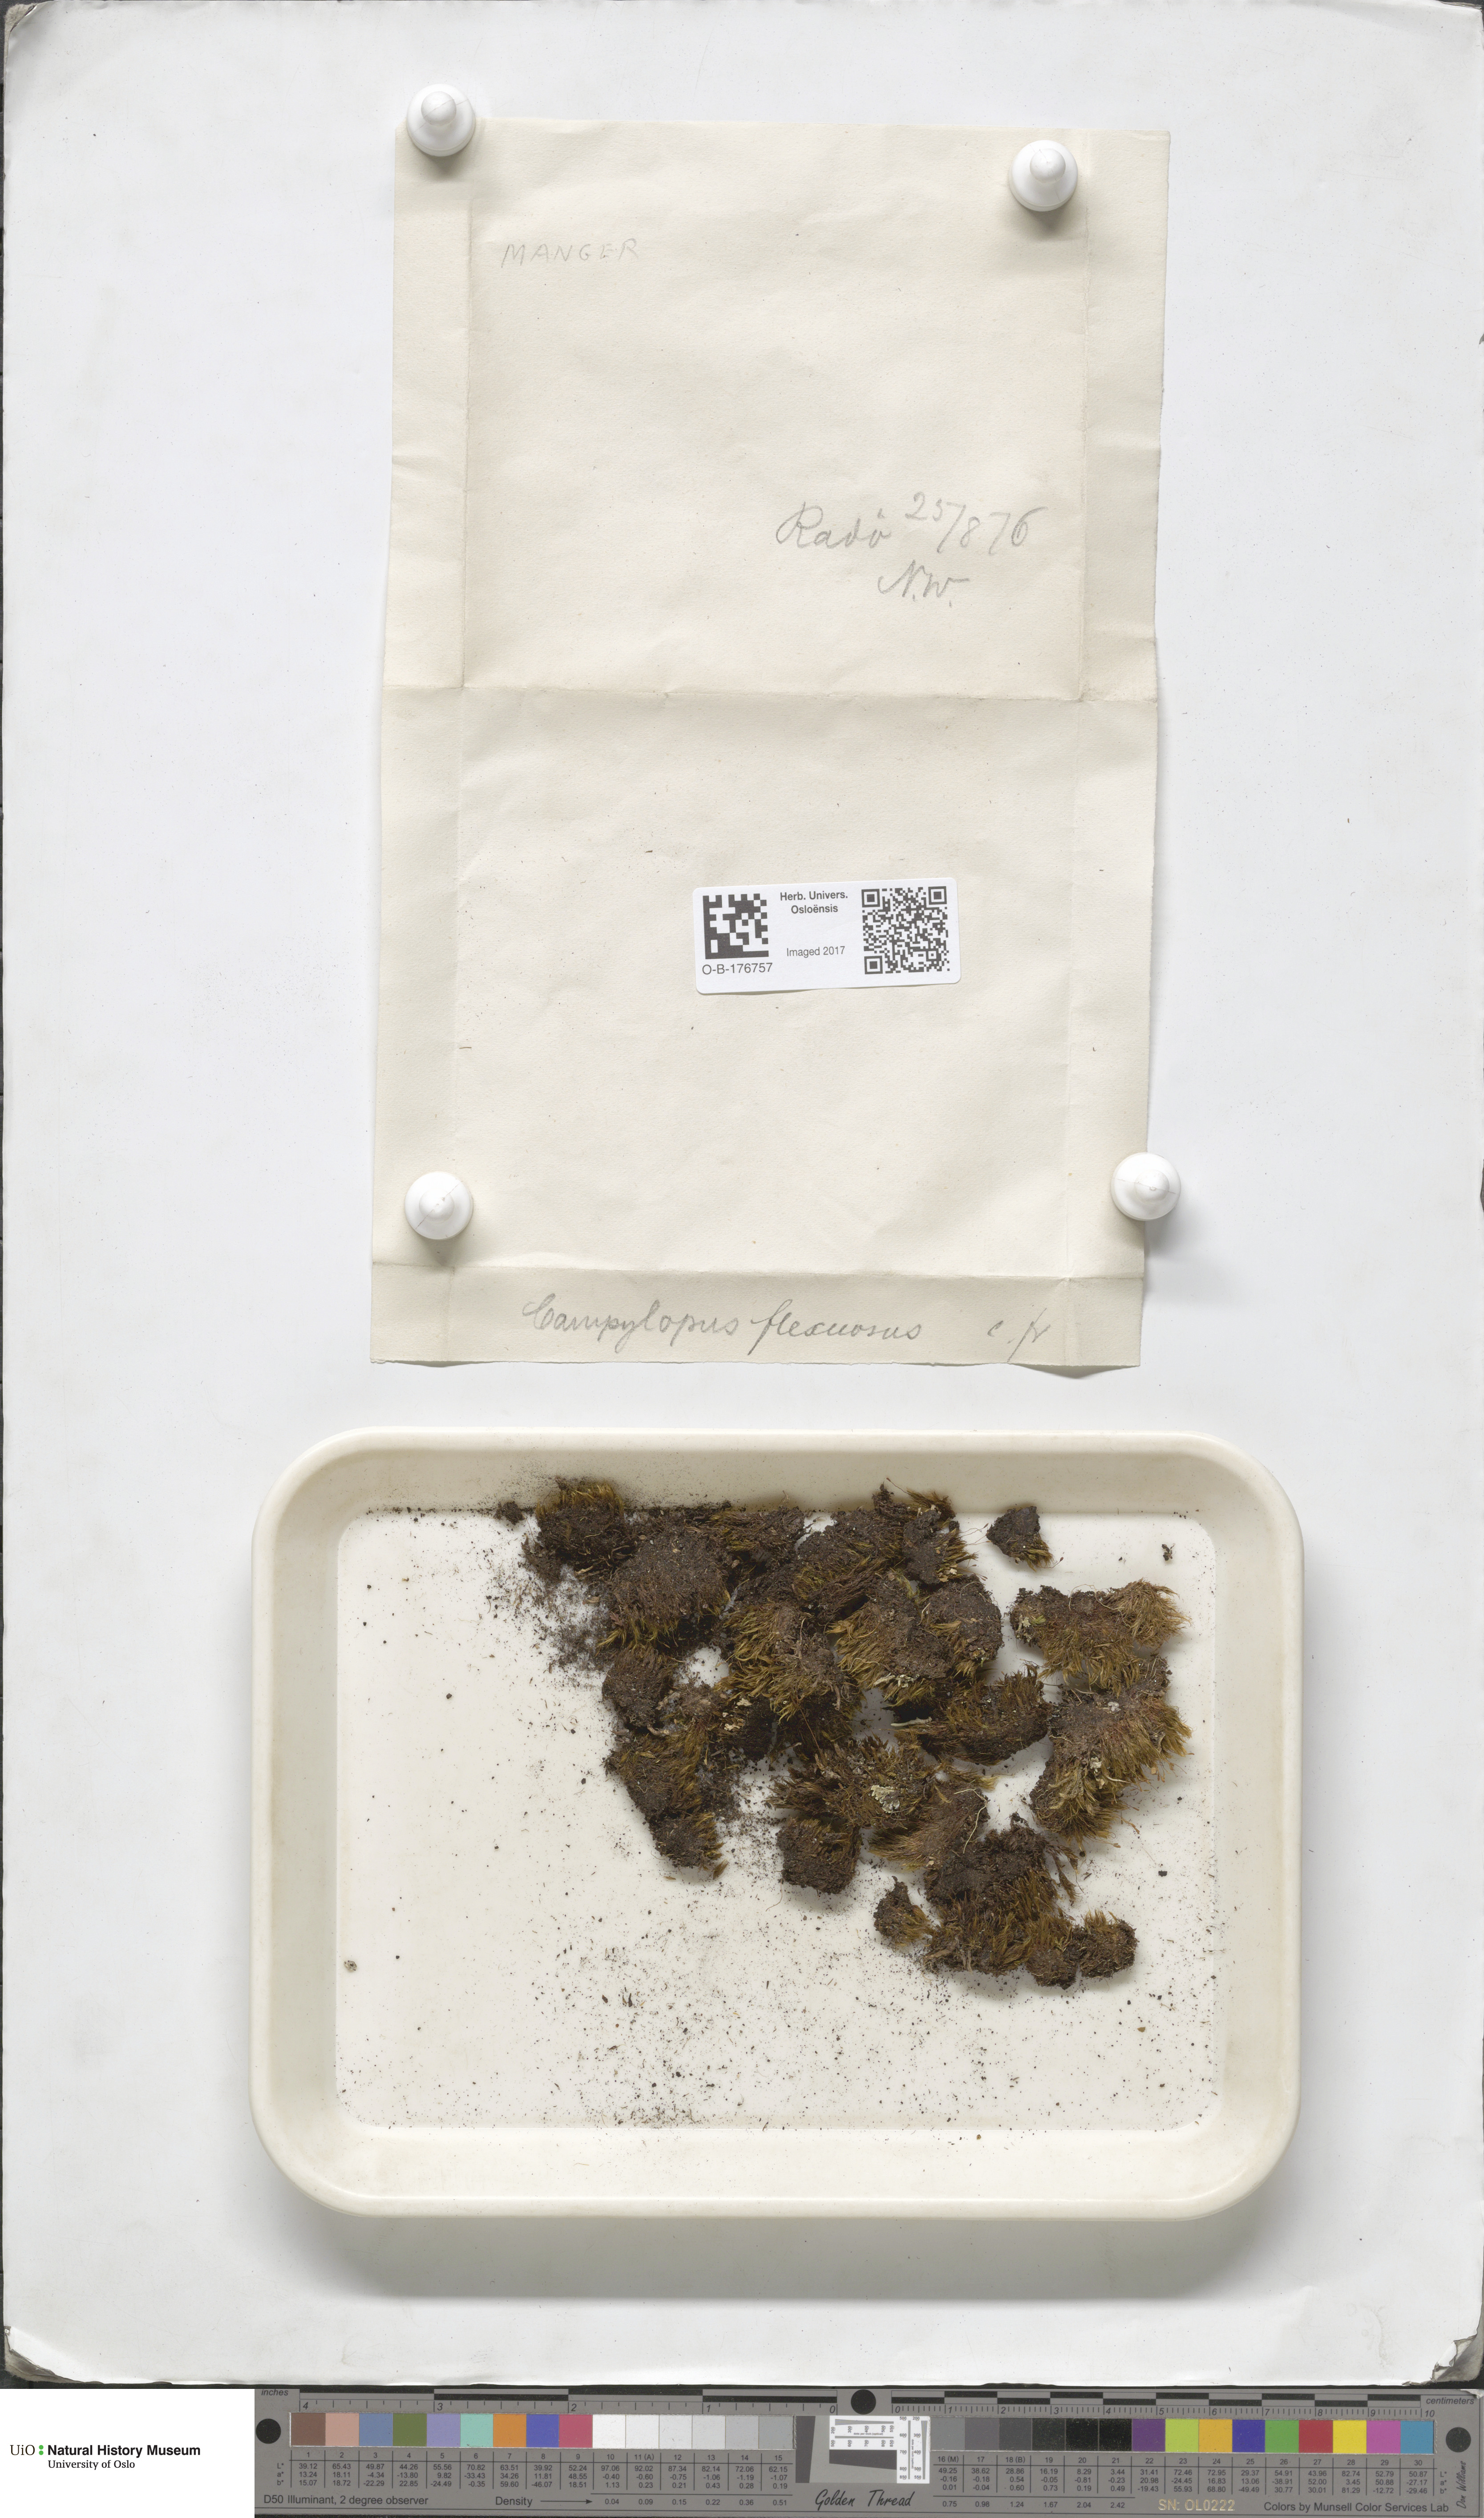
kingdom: Plantae
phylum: Bryophyta
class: Bryopsida
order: Dicranales
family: Leucobryaceae
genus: Campylopus
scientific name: Campylopus flexuosus
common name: Rusty swan-neck moss
